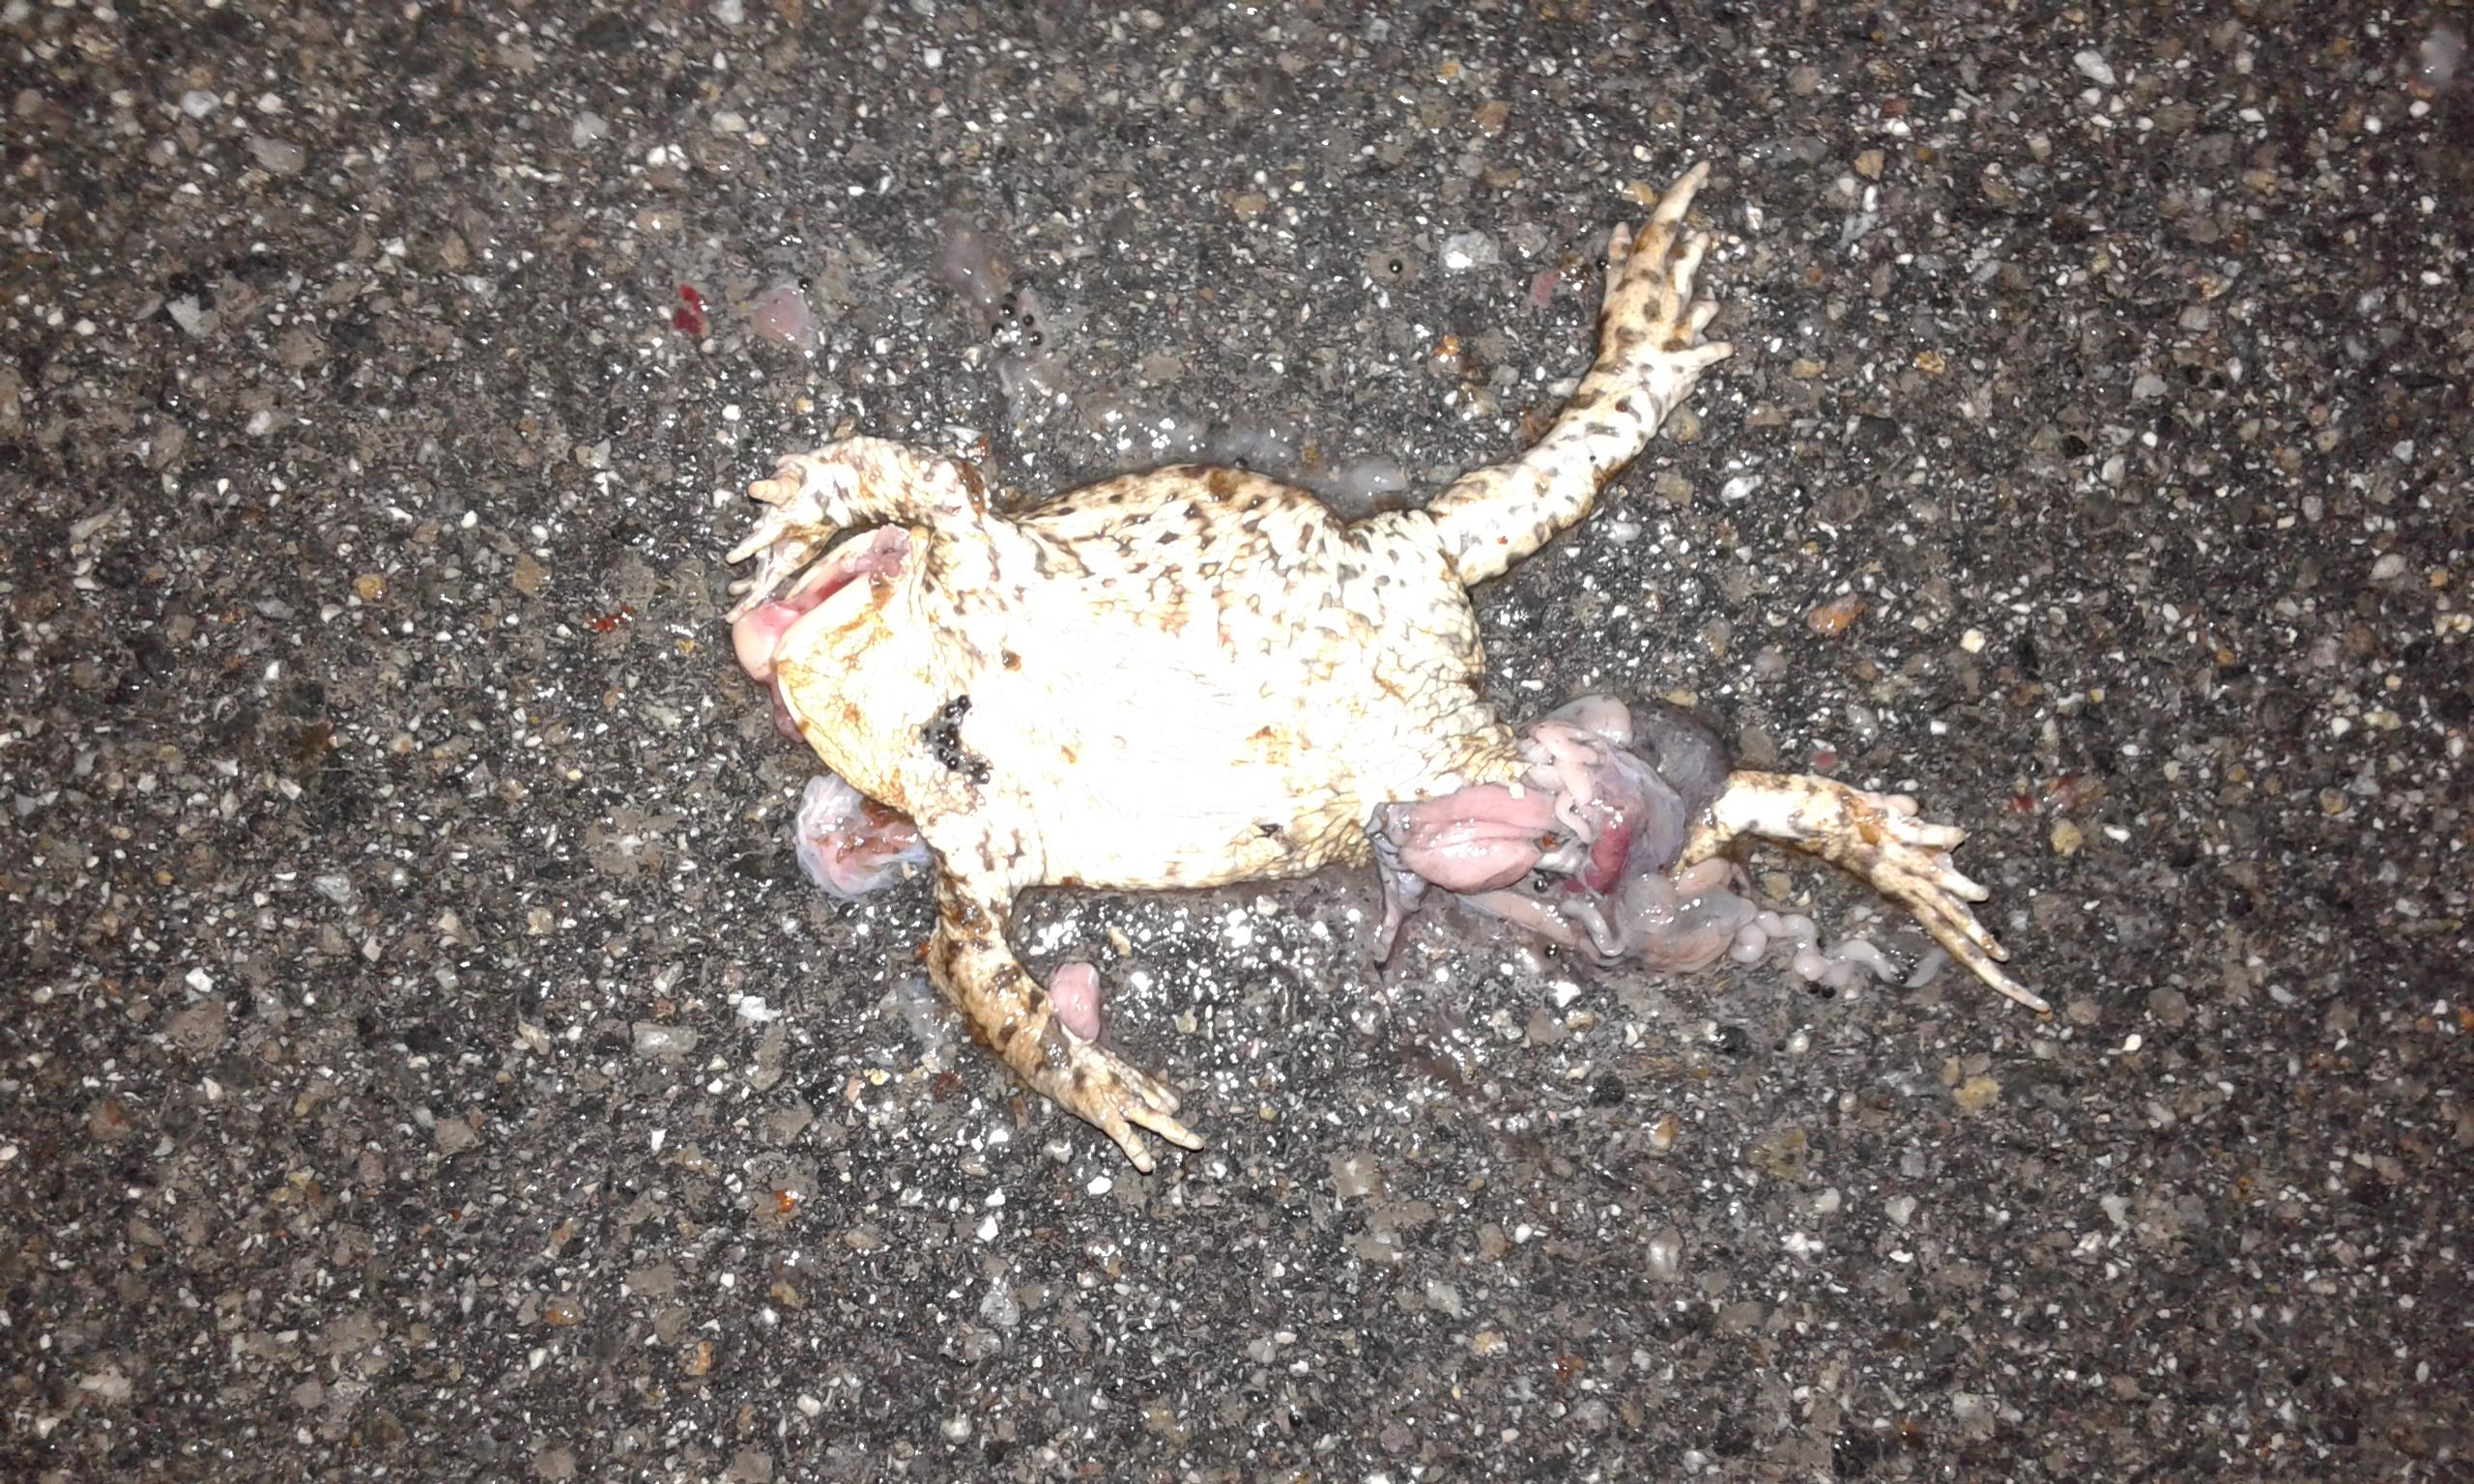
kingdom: Animalia
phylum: Chordata
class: Amphibia
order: Anura
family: Bufonidae
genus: Bufo
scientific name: Bufo bufo
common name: Common toad
